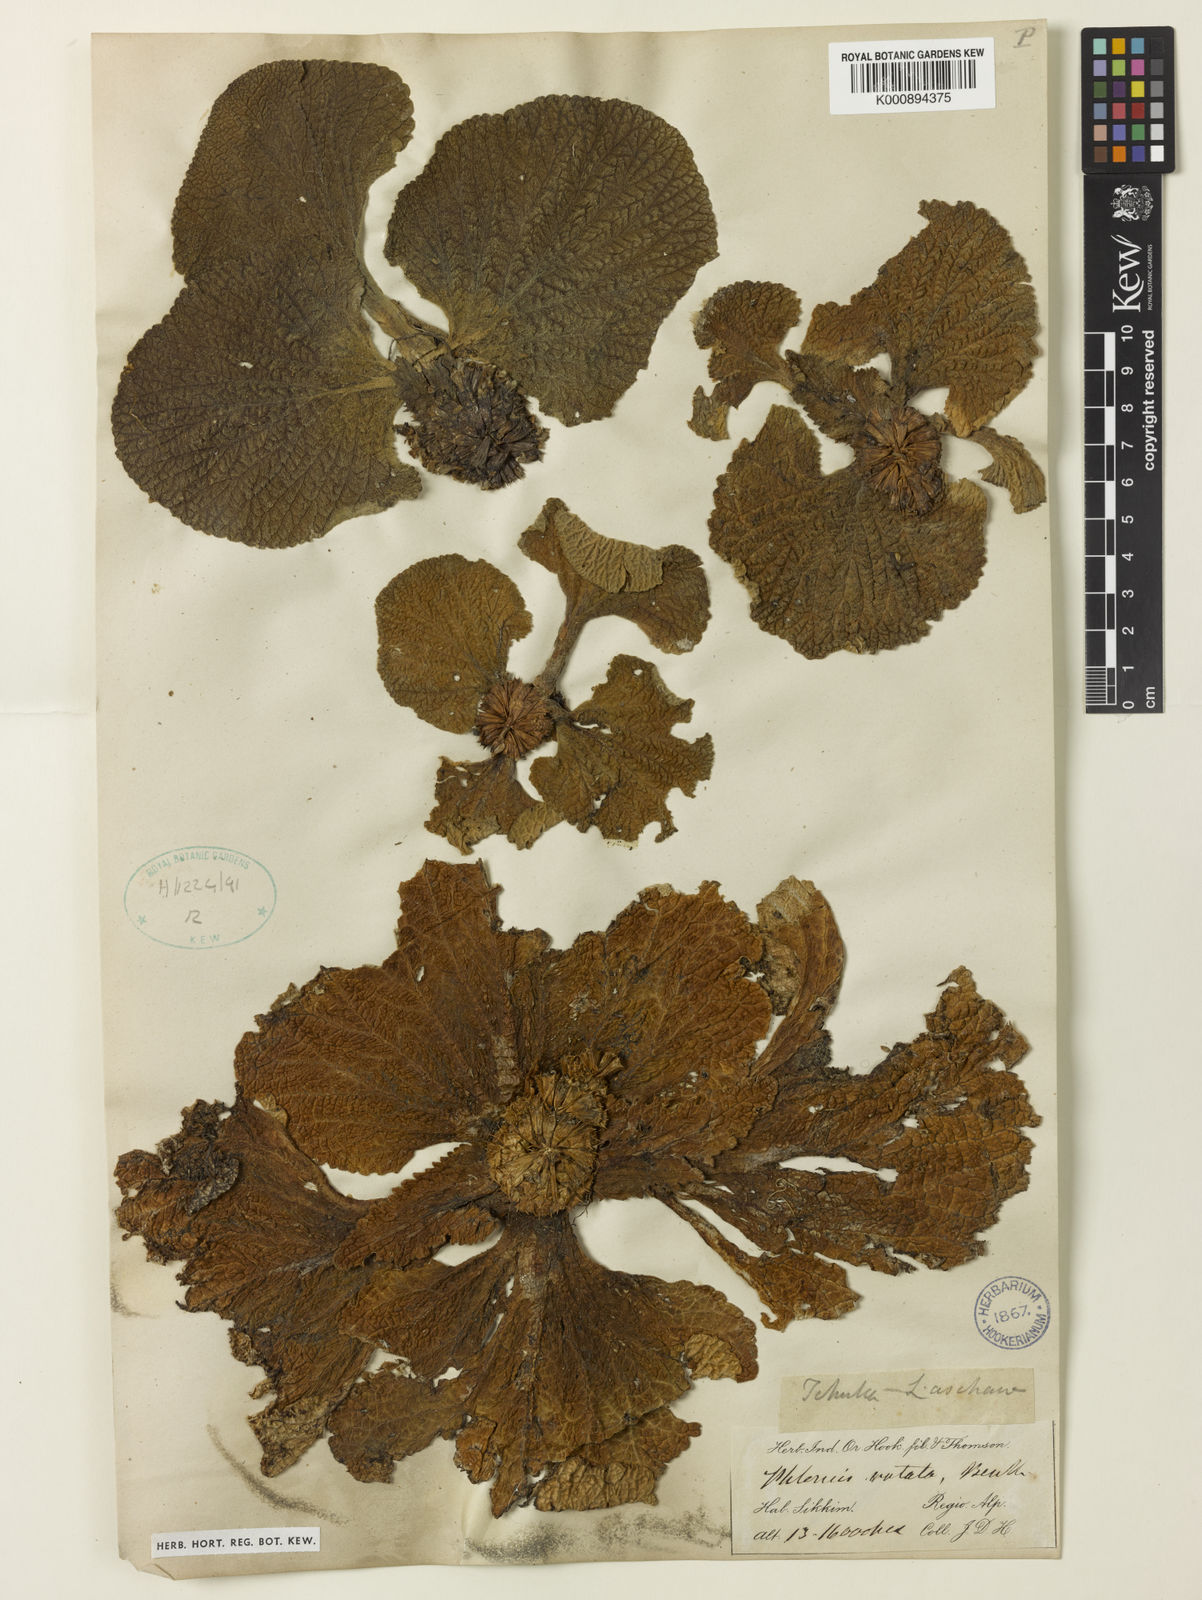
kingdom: Plantae
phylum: Tracheophyta
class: Magnoliopsida
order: Lamiales
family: Lamiaceae
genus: Phlomoides
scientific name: Phlomoides rotata
